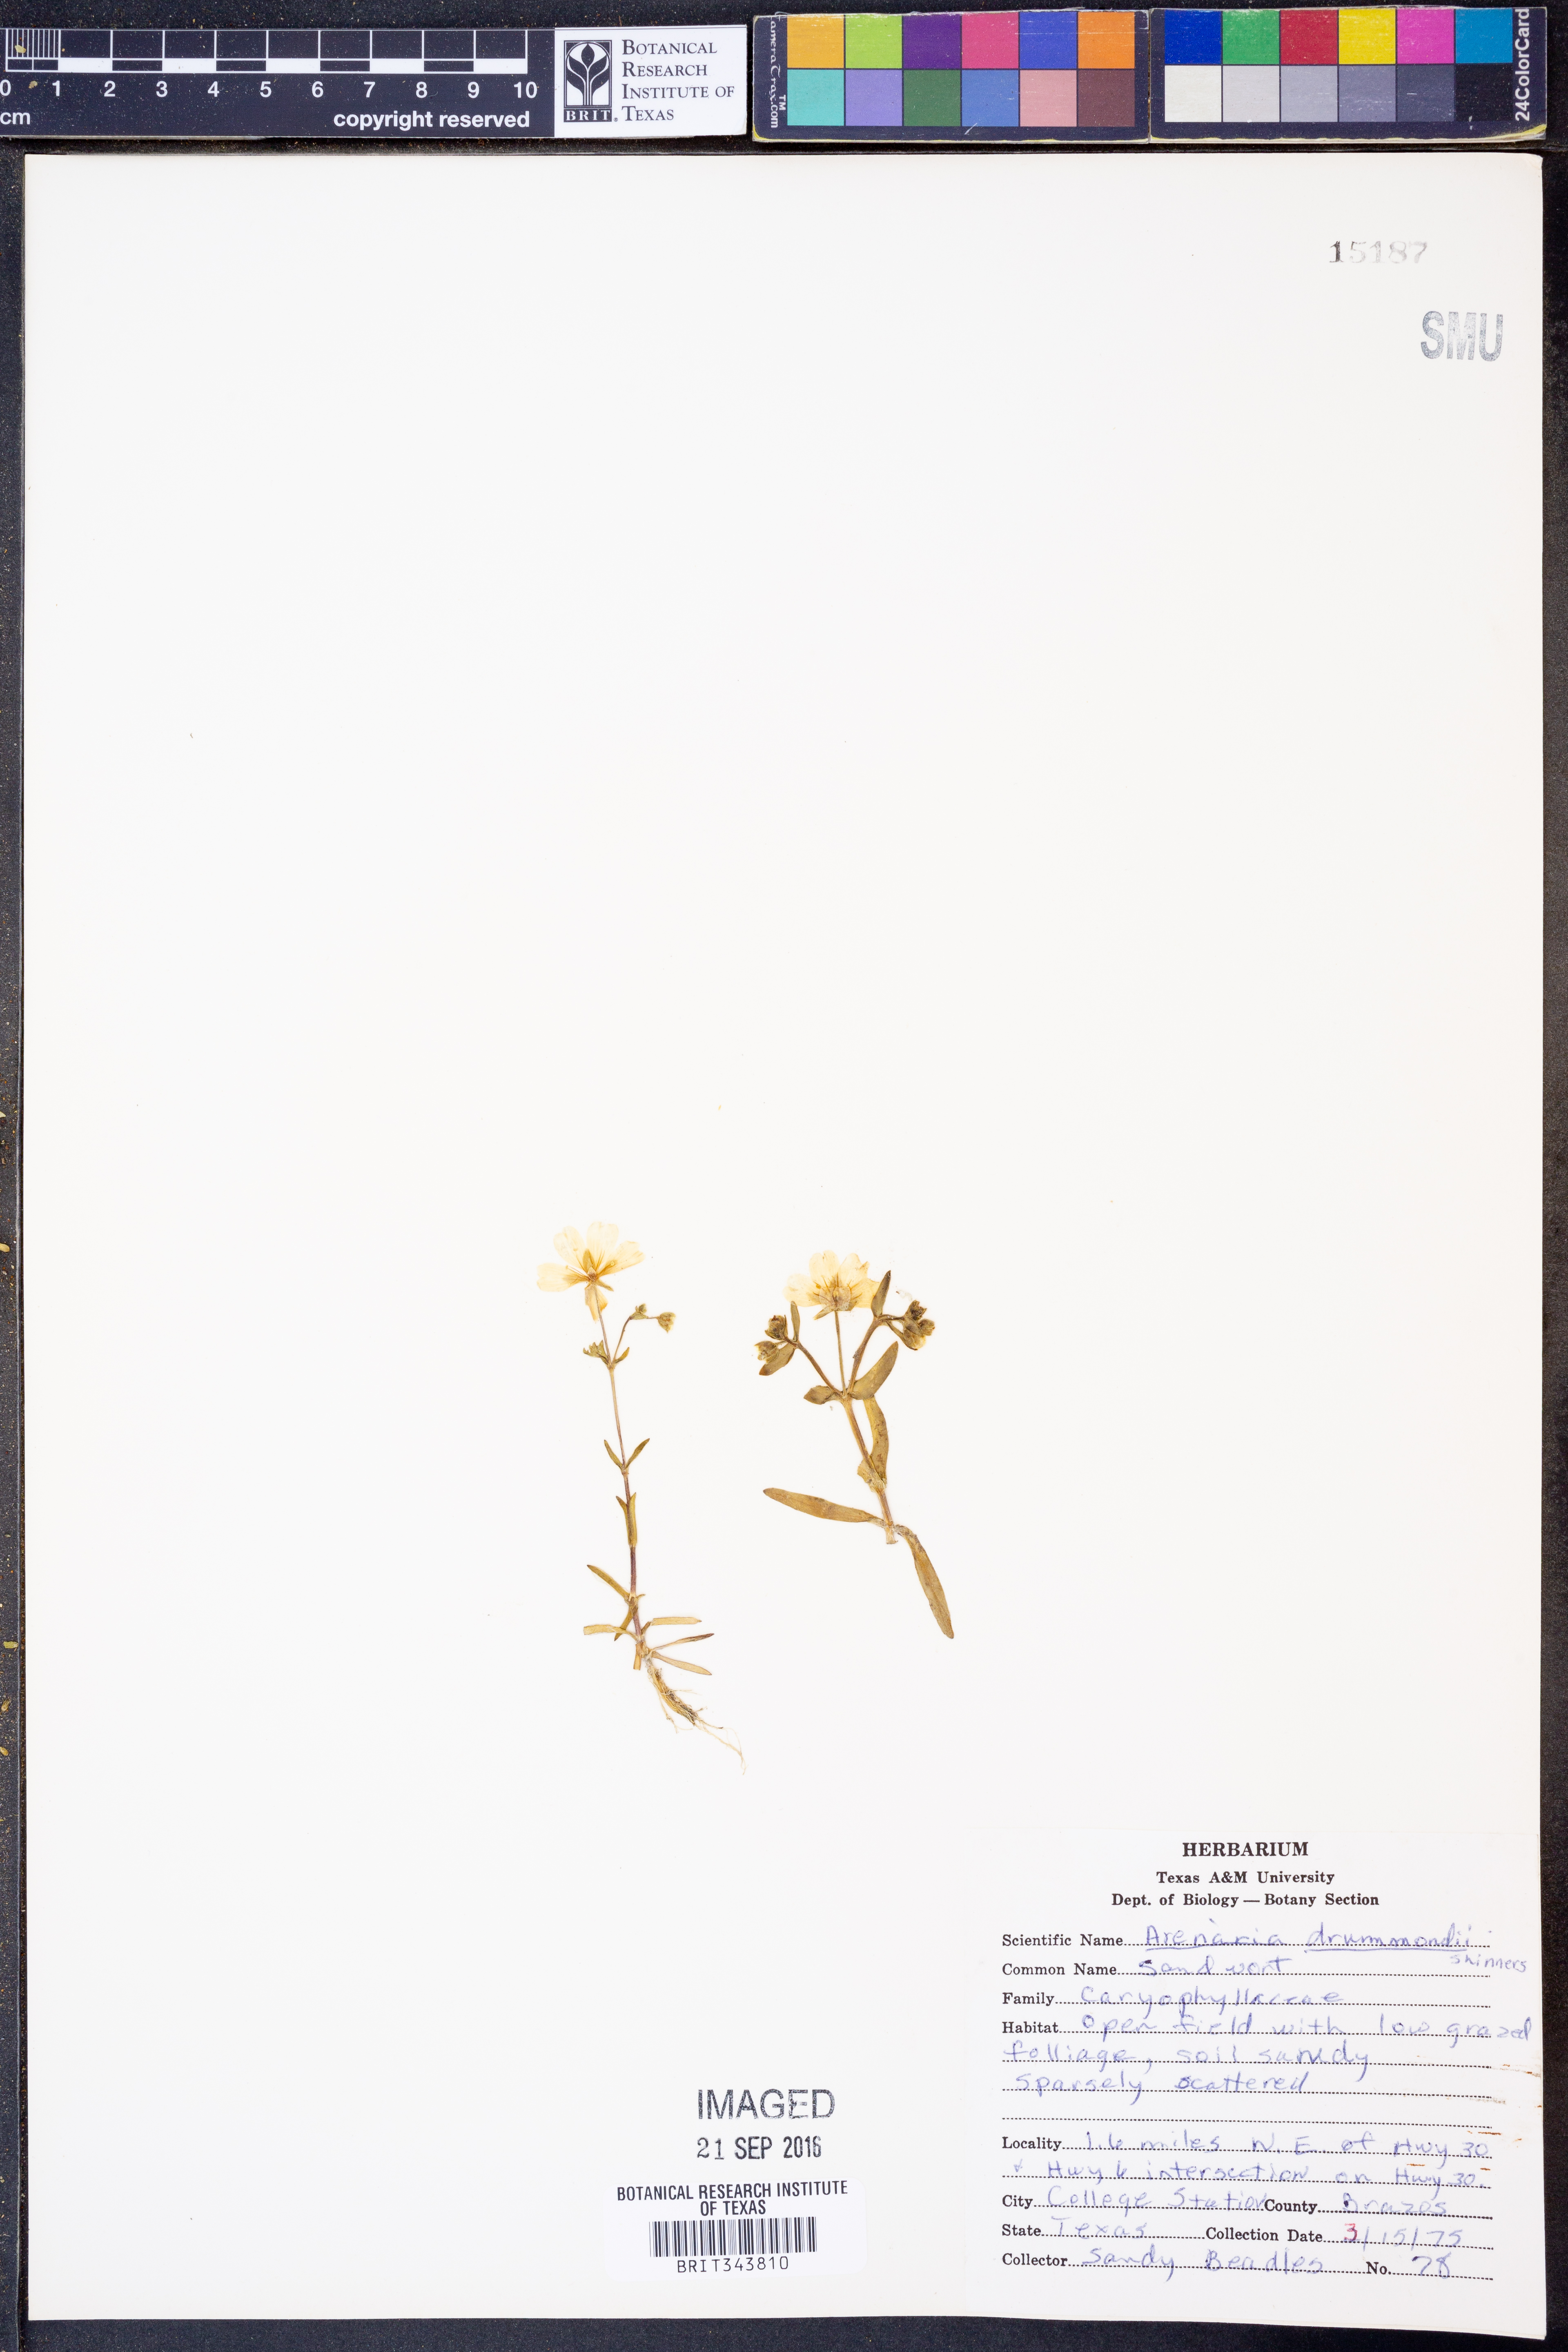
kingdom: Plantae
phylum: Tracheophyta
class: Magnoliopsida
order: Caryophyllales
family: Caryophyllaceae
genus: Geocarpon
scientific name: Geocarpon nuttallii
